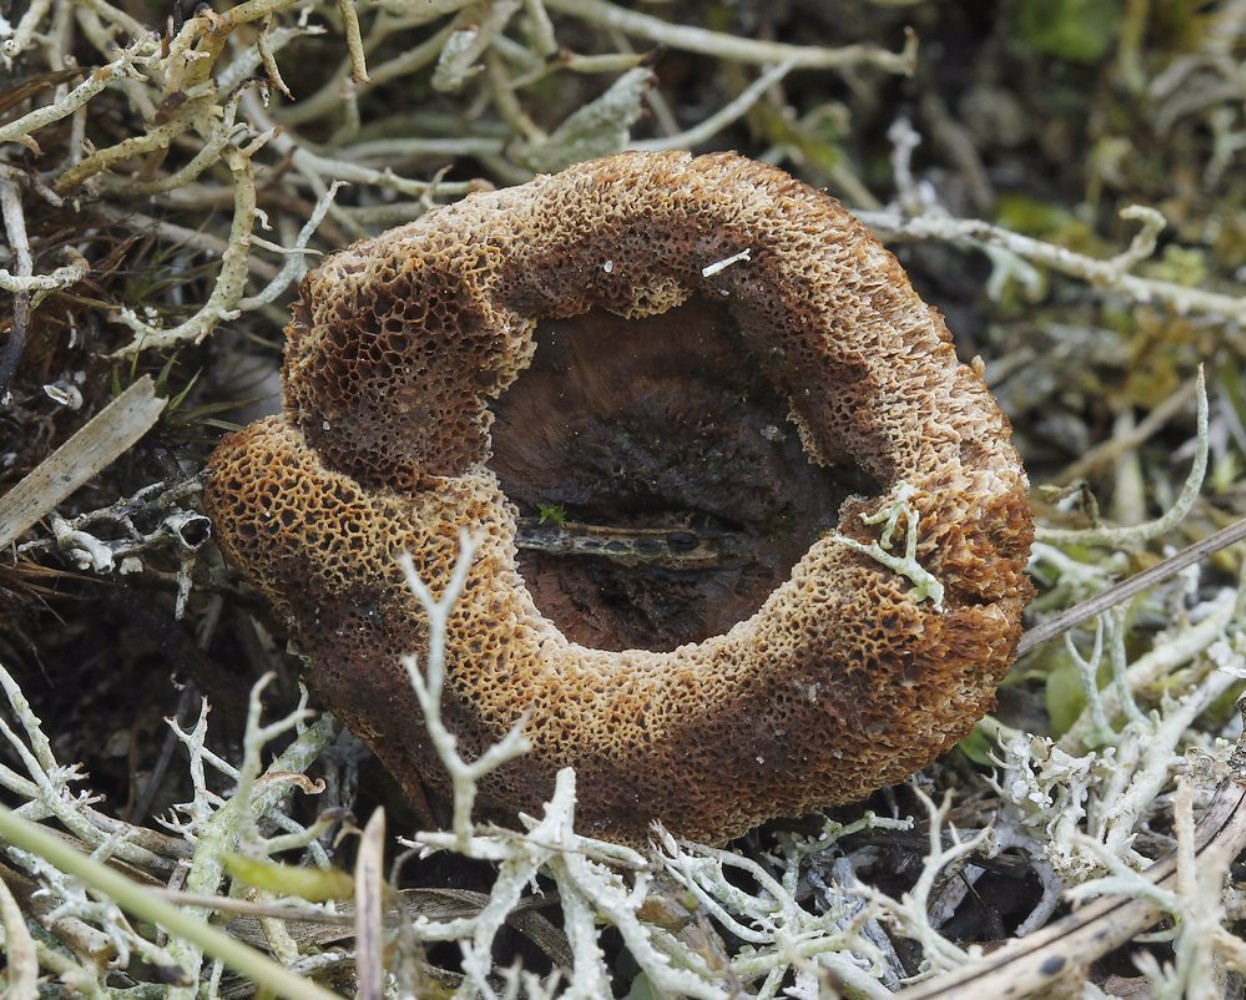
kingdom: Fungi
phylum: Basidiomycota
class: Agaricomycetes
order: Hymenochaetales
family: Hymenochaetaceae
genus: Coltricia
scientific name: Coltricia
